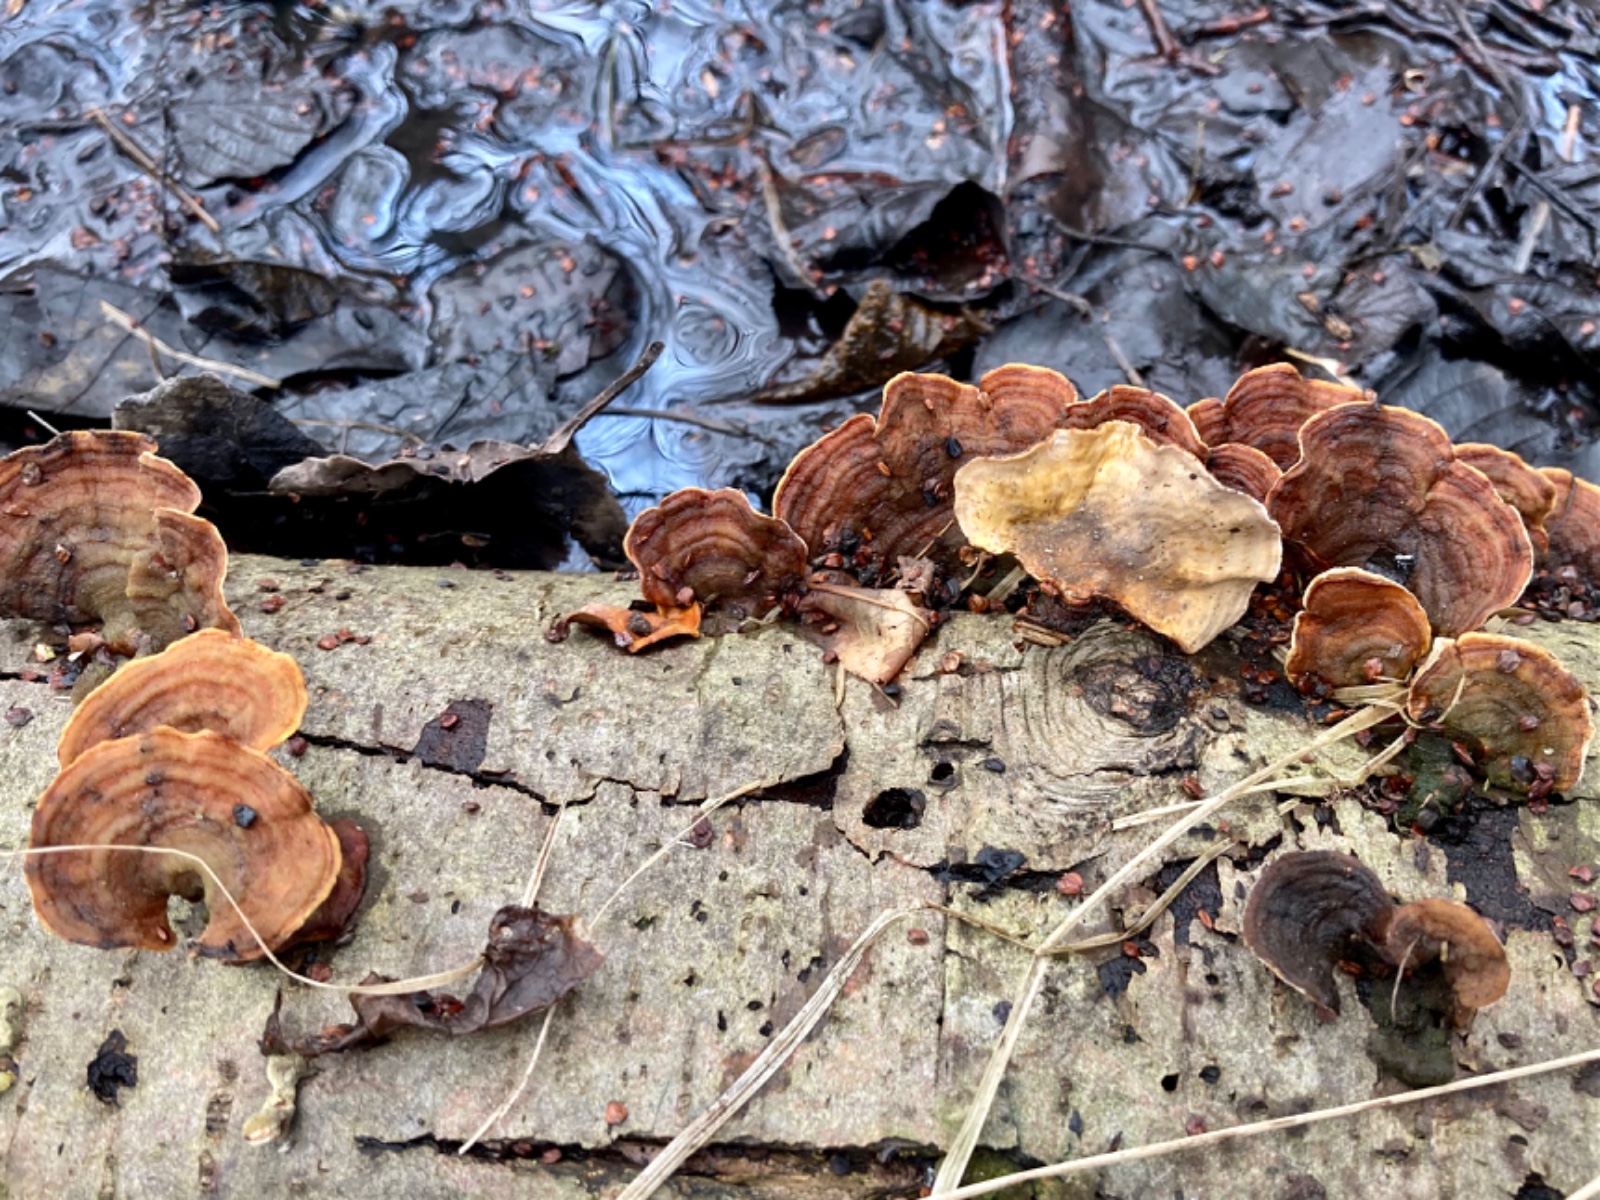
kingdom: Fungi
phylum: Basidiomycota
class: Agaricomycetes
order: Russulales
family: Stereaceae
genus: Stereum
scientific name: Stereum subtomentosum
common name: smuk lædersvamp
